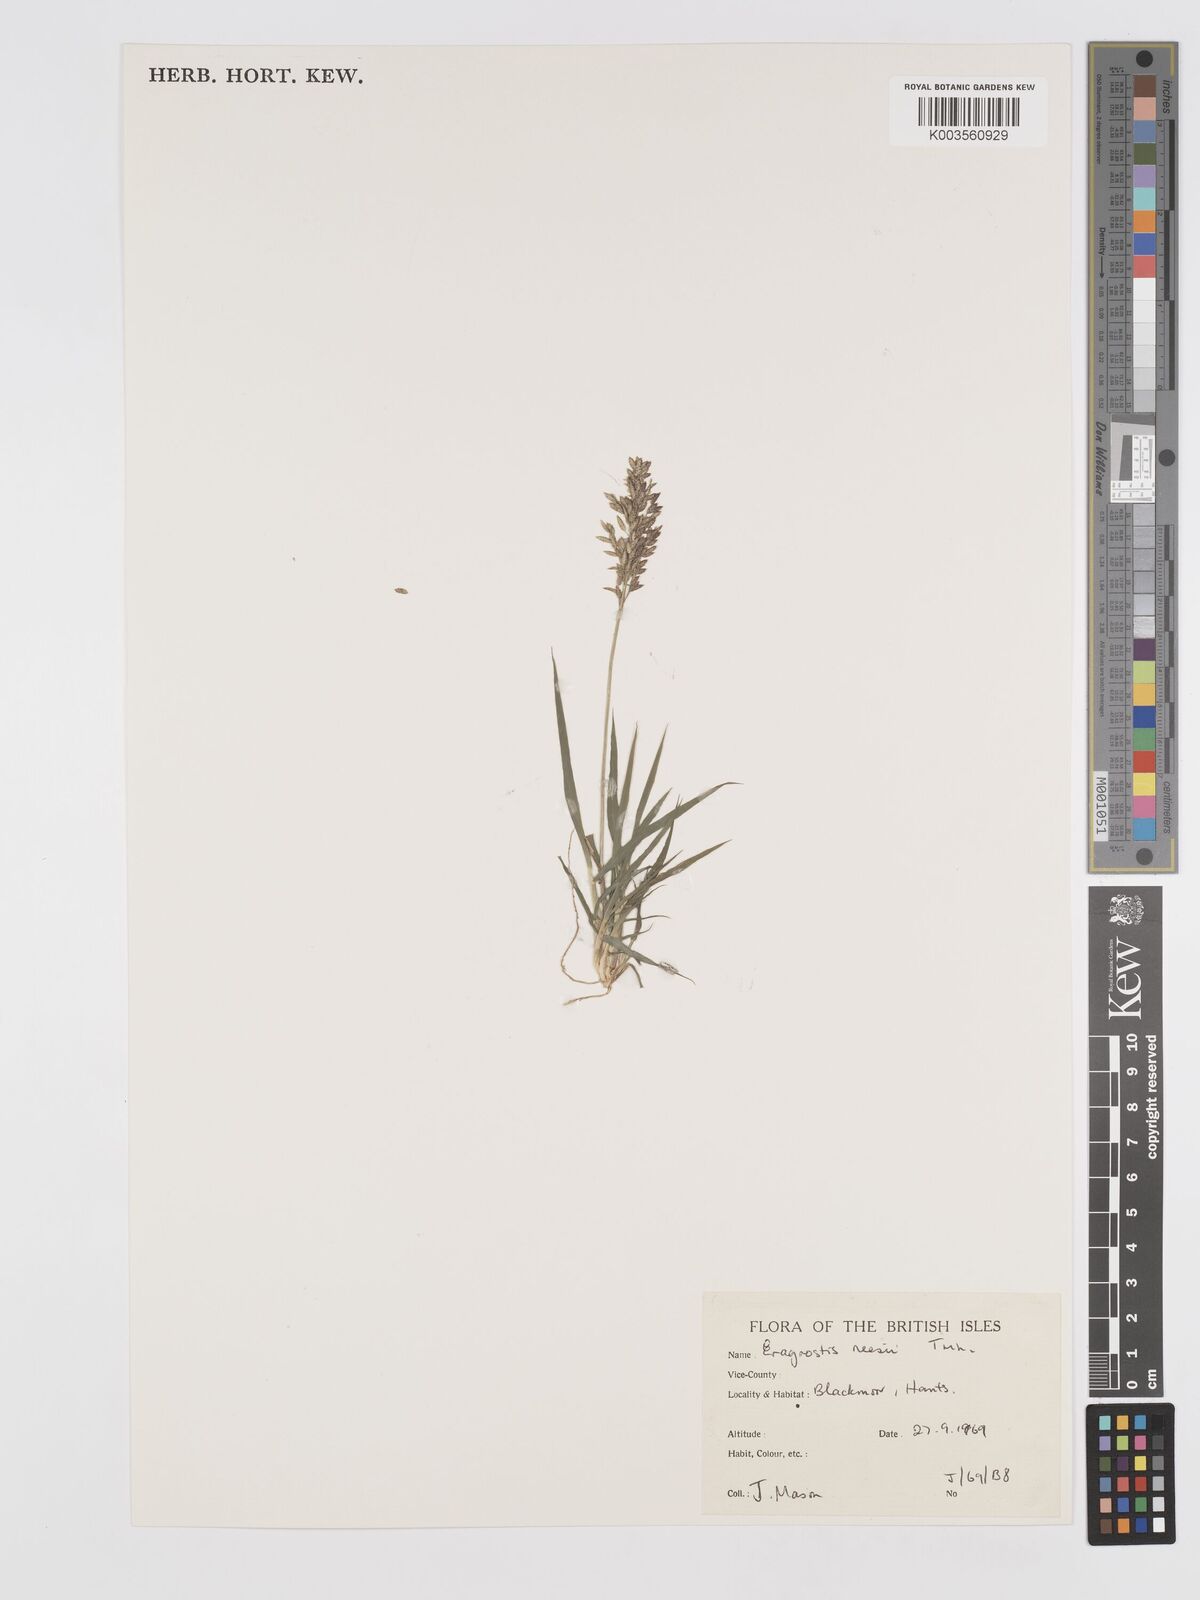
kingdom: Plantae
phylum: Tracheophyta
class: Liliopsida
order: Poales
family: Poaceae
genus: Eragrostis
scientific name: Eragrostis neesii
